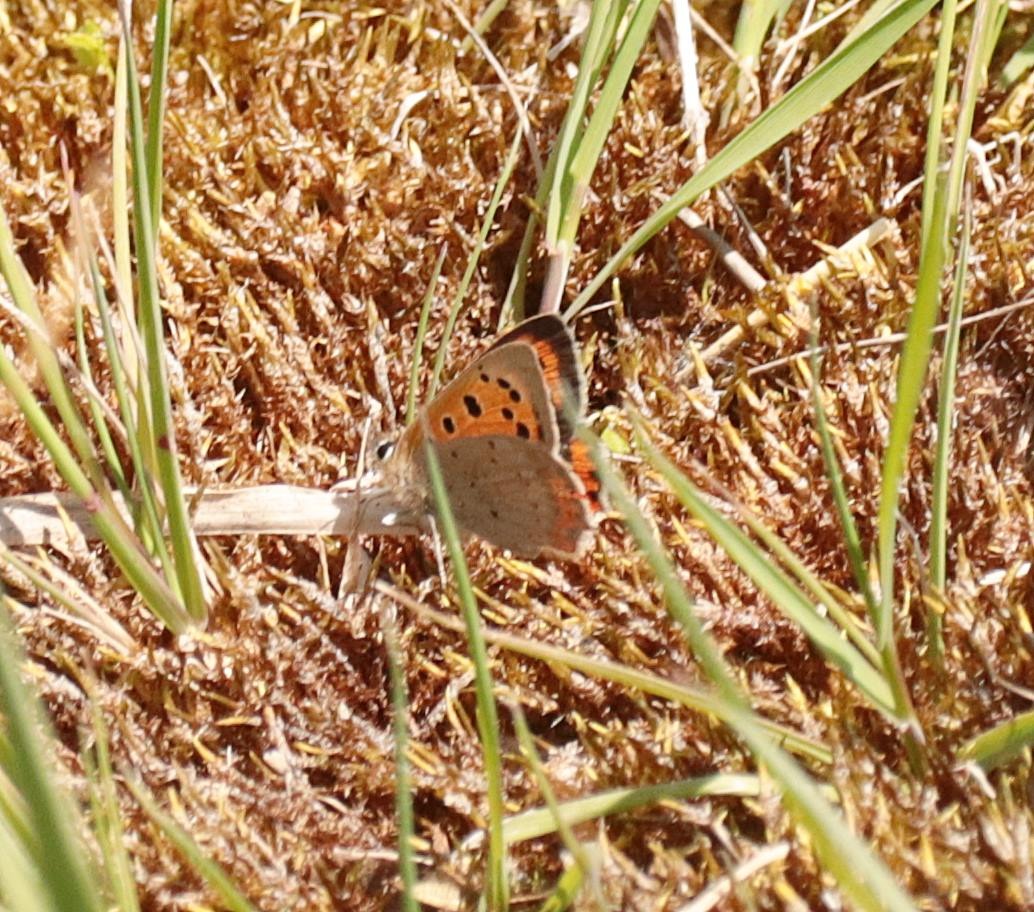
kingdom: Animalia
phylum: Arthropoda
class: Insecta
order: Lepidoptera
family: Lycaenidae
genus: Lycaena
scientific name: Lycaena phlaeas
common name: Lille ildfugl
